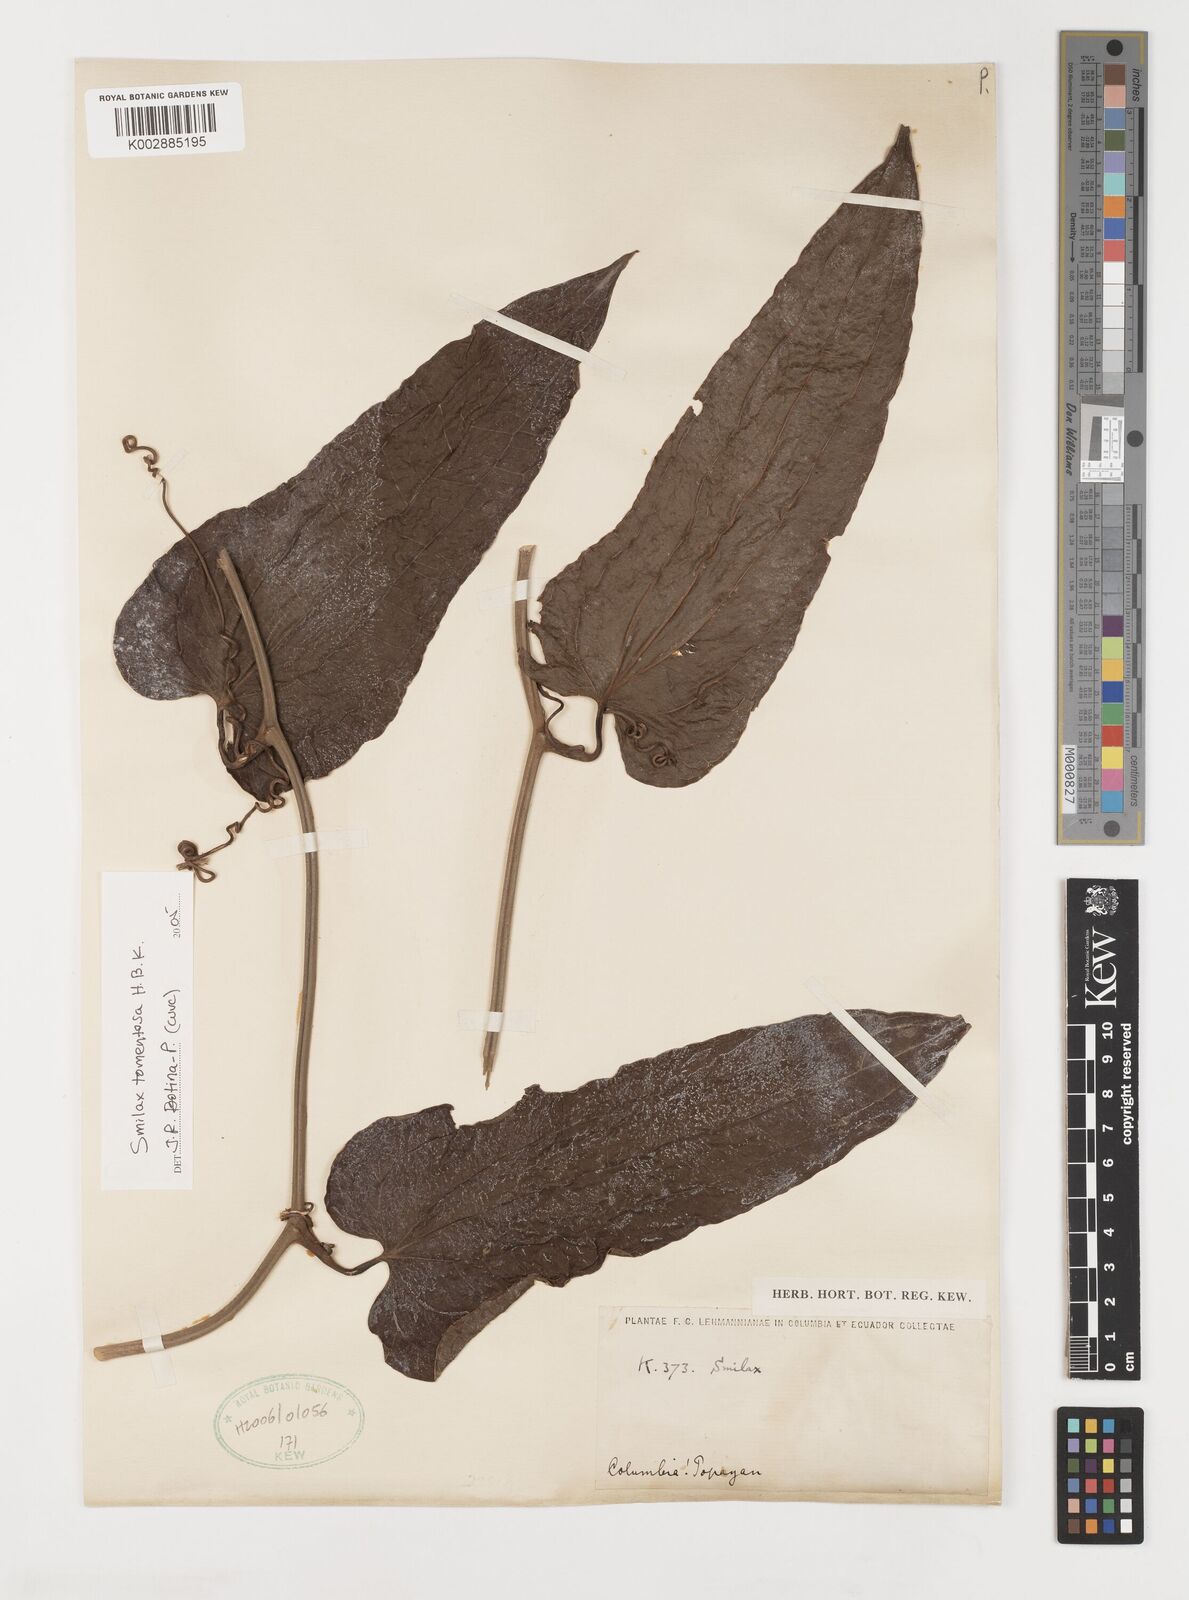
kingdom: Plantae
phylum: Tracheophyta
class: Liliopsida
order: Liliales
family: Smilacaceae
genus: Smilax
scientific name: Smilax tomentosa
